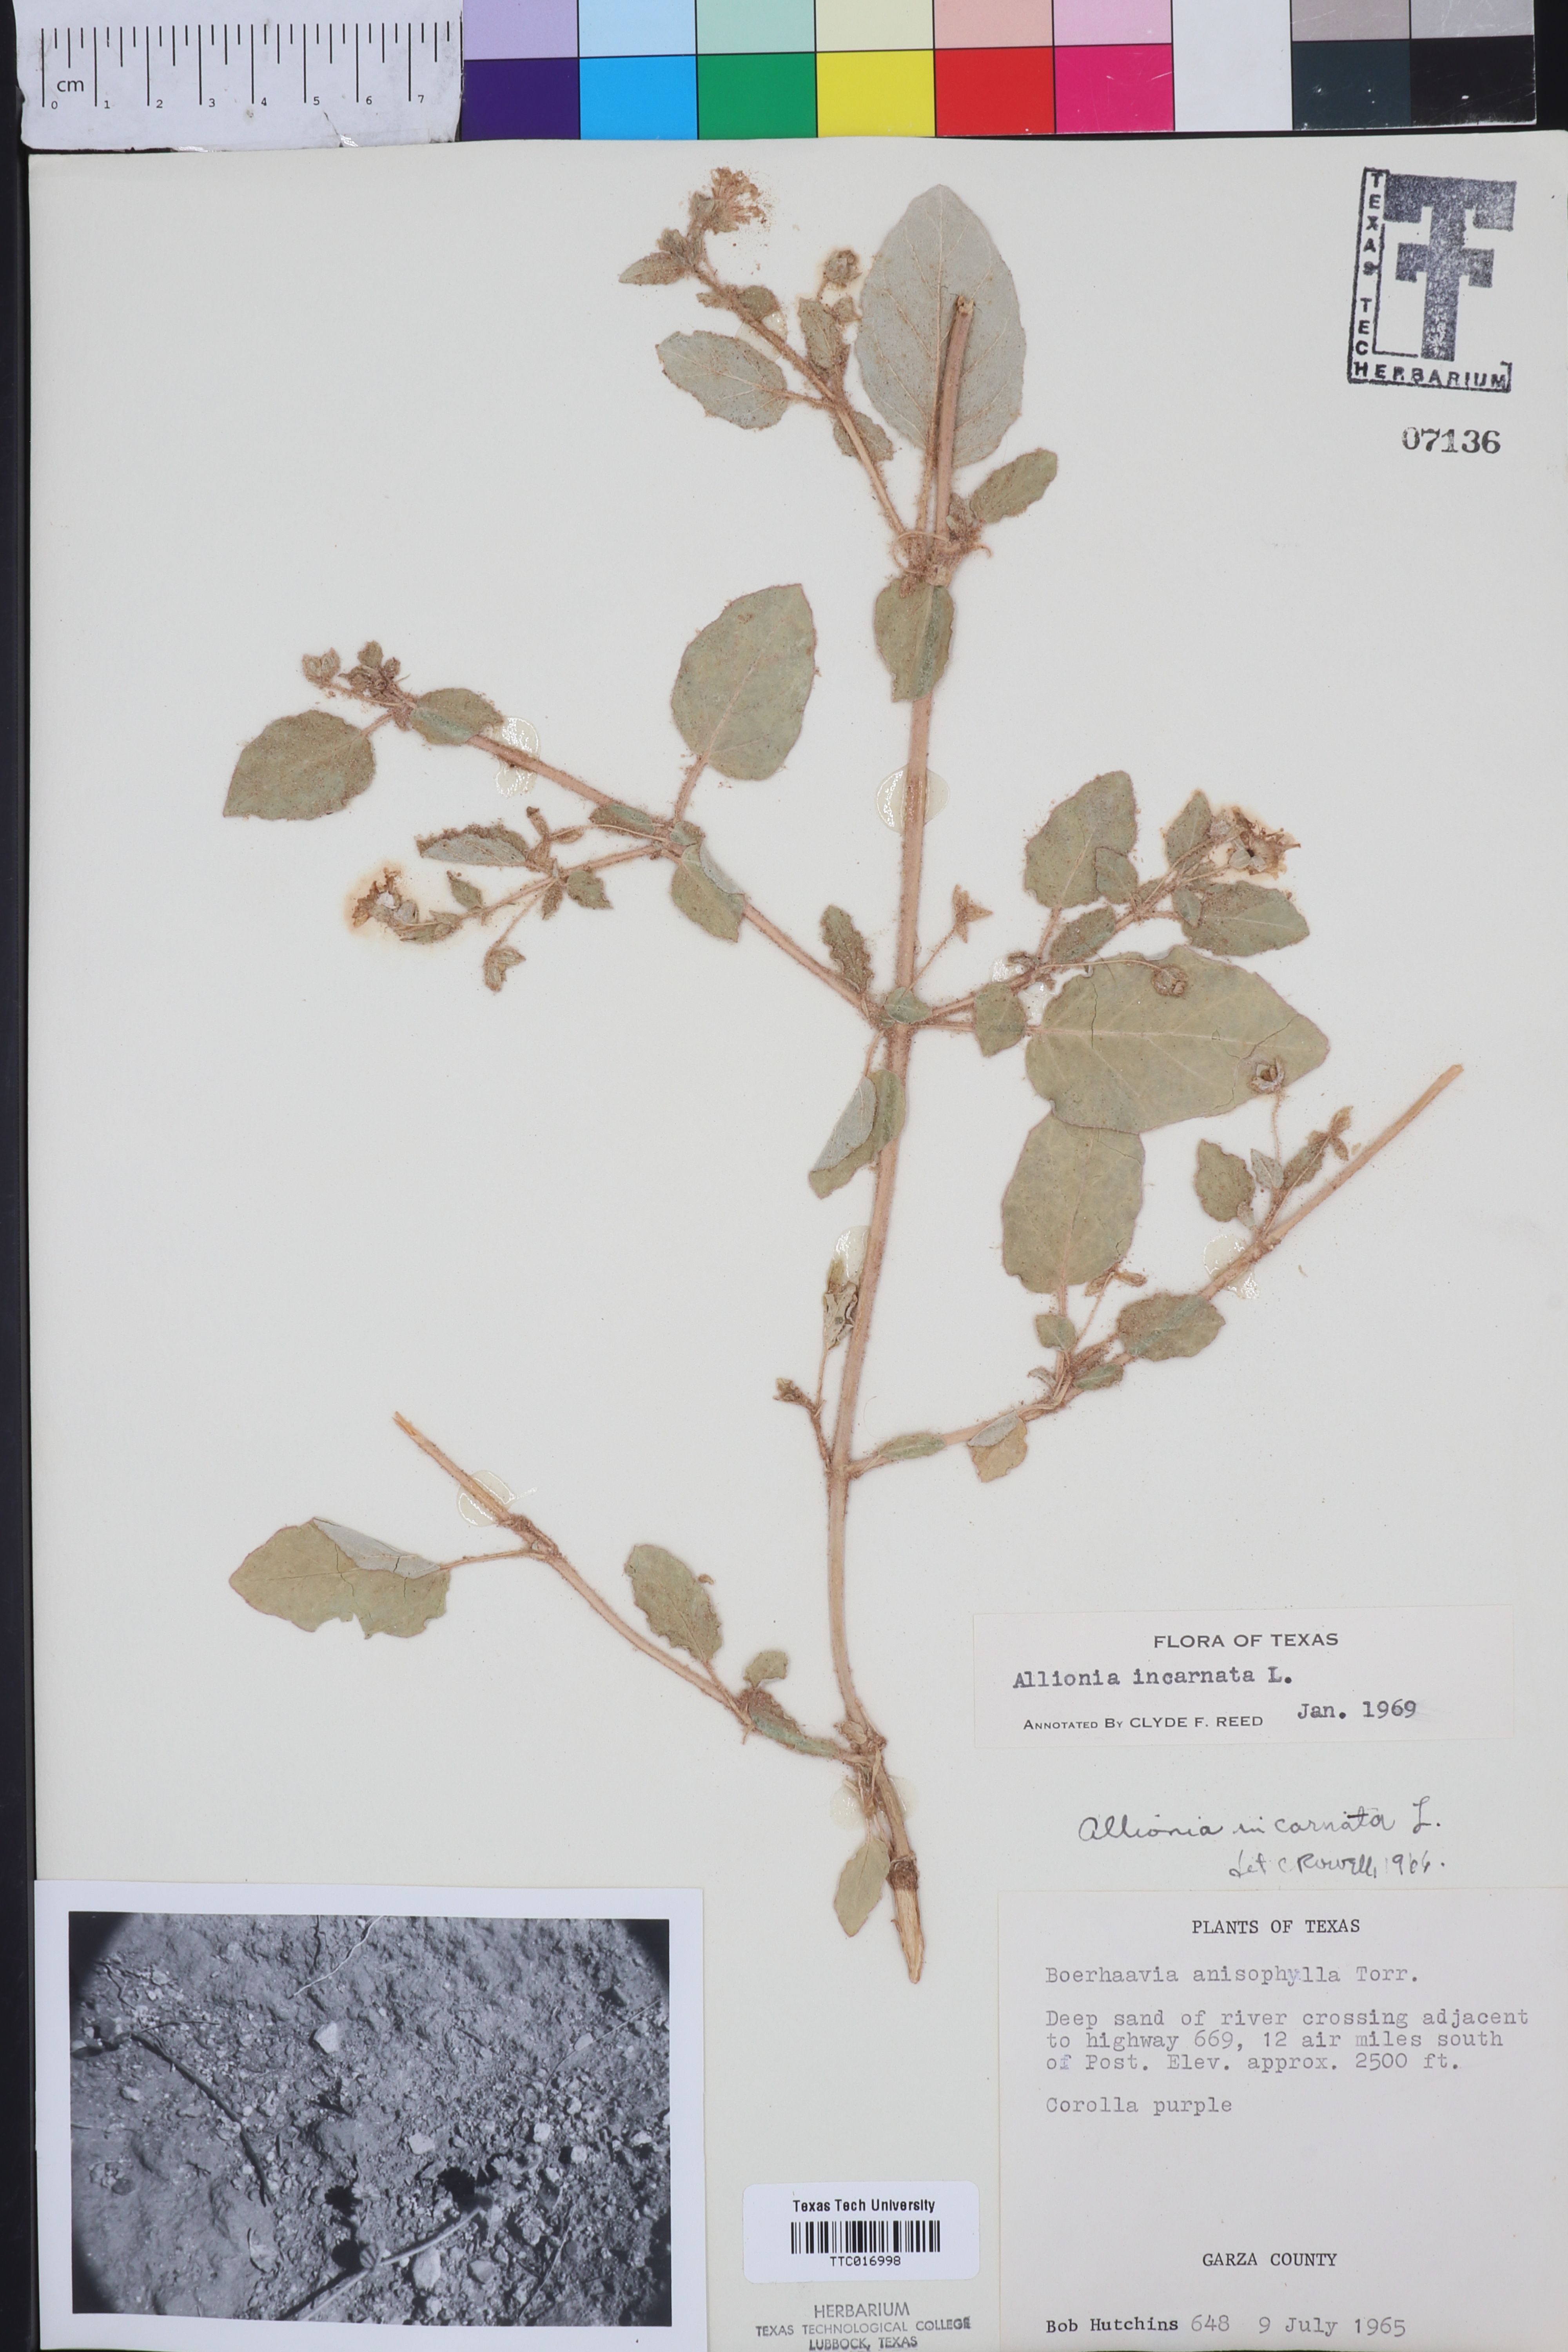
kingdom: Plantae
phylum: Tracheophyta
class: Magnoliopsida
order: Caryophyllales
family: Nyctaginaceae
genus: Allionia
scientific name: Allionia incarnata
